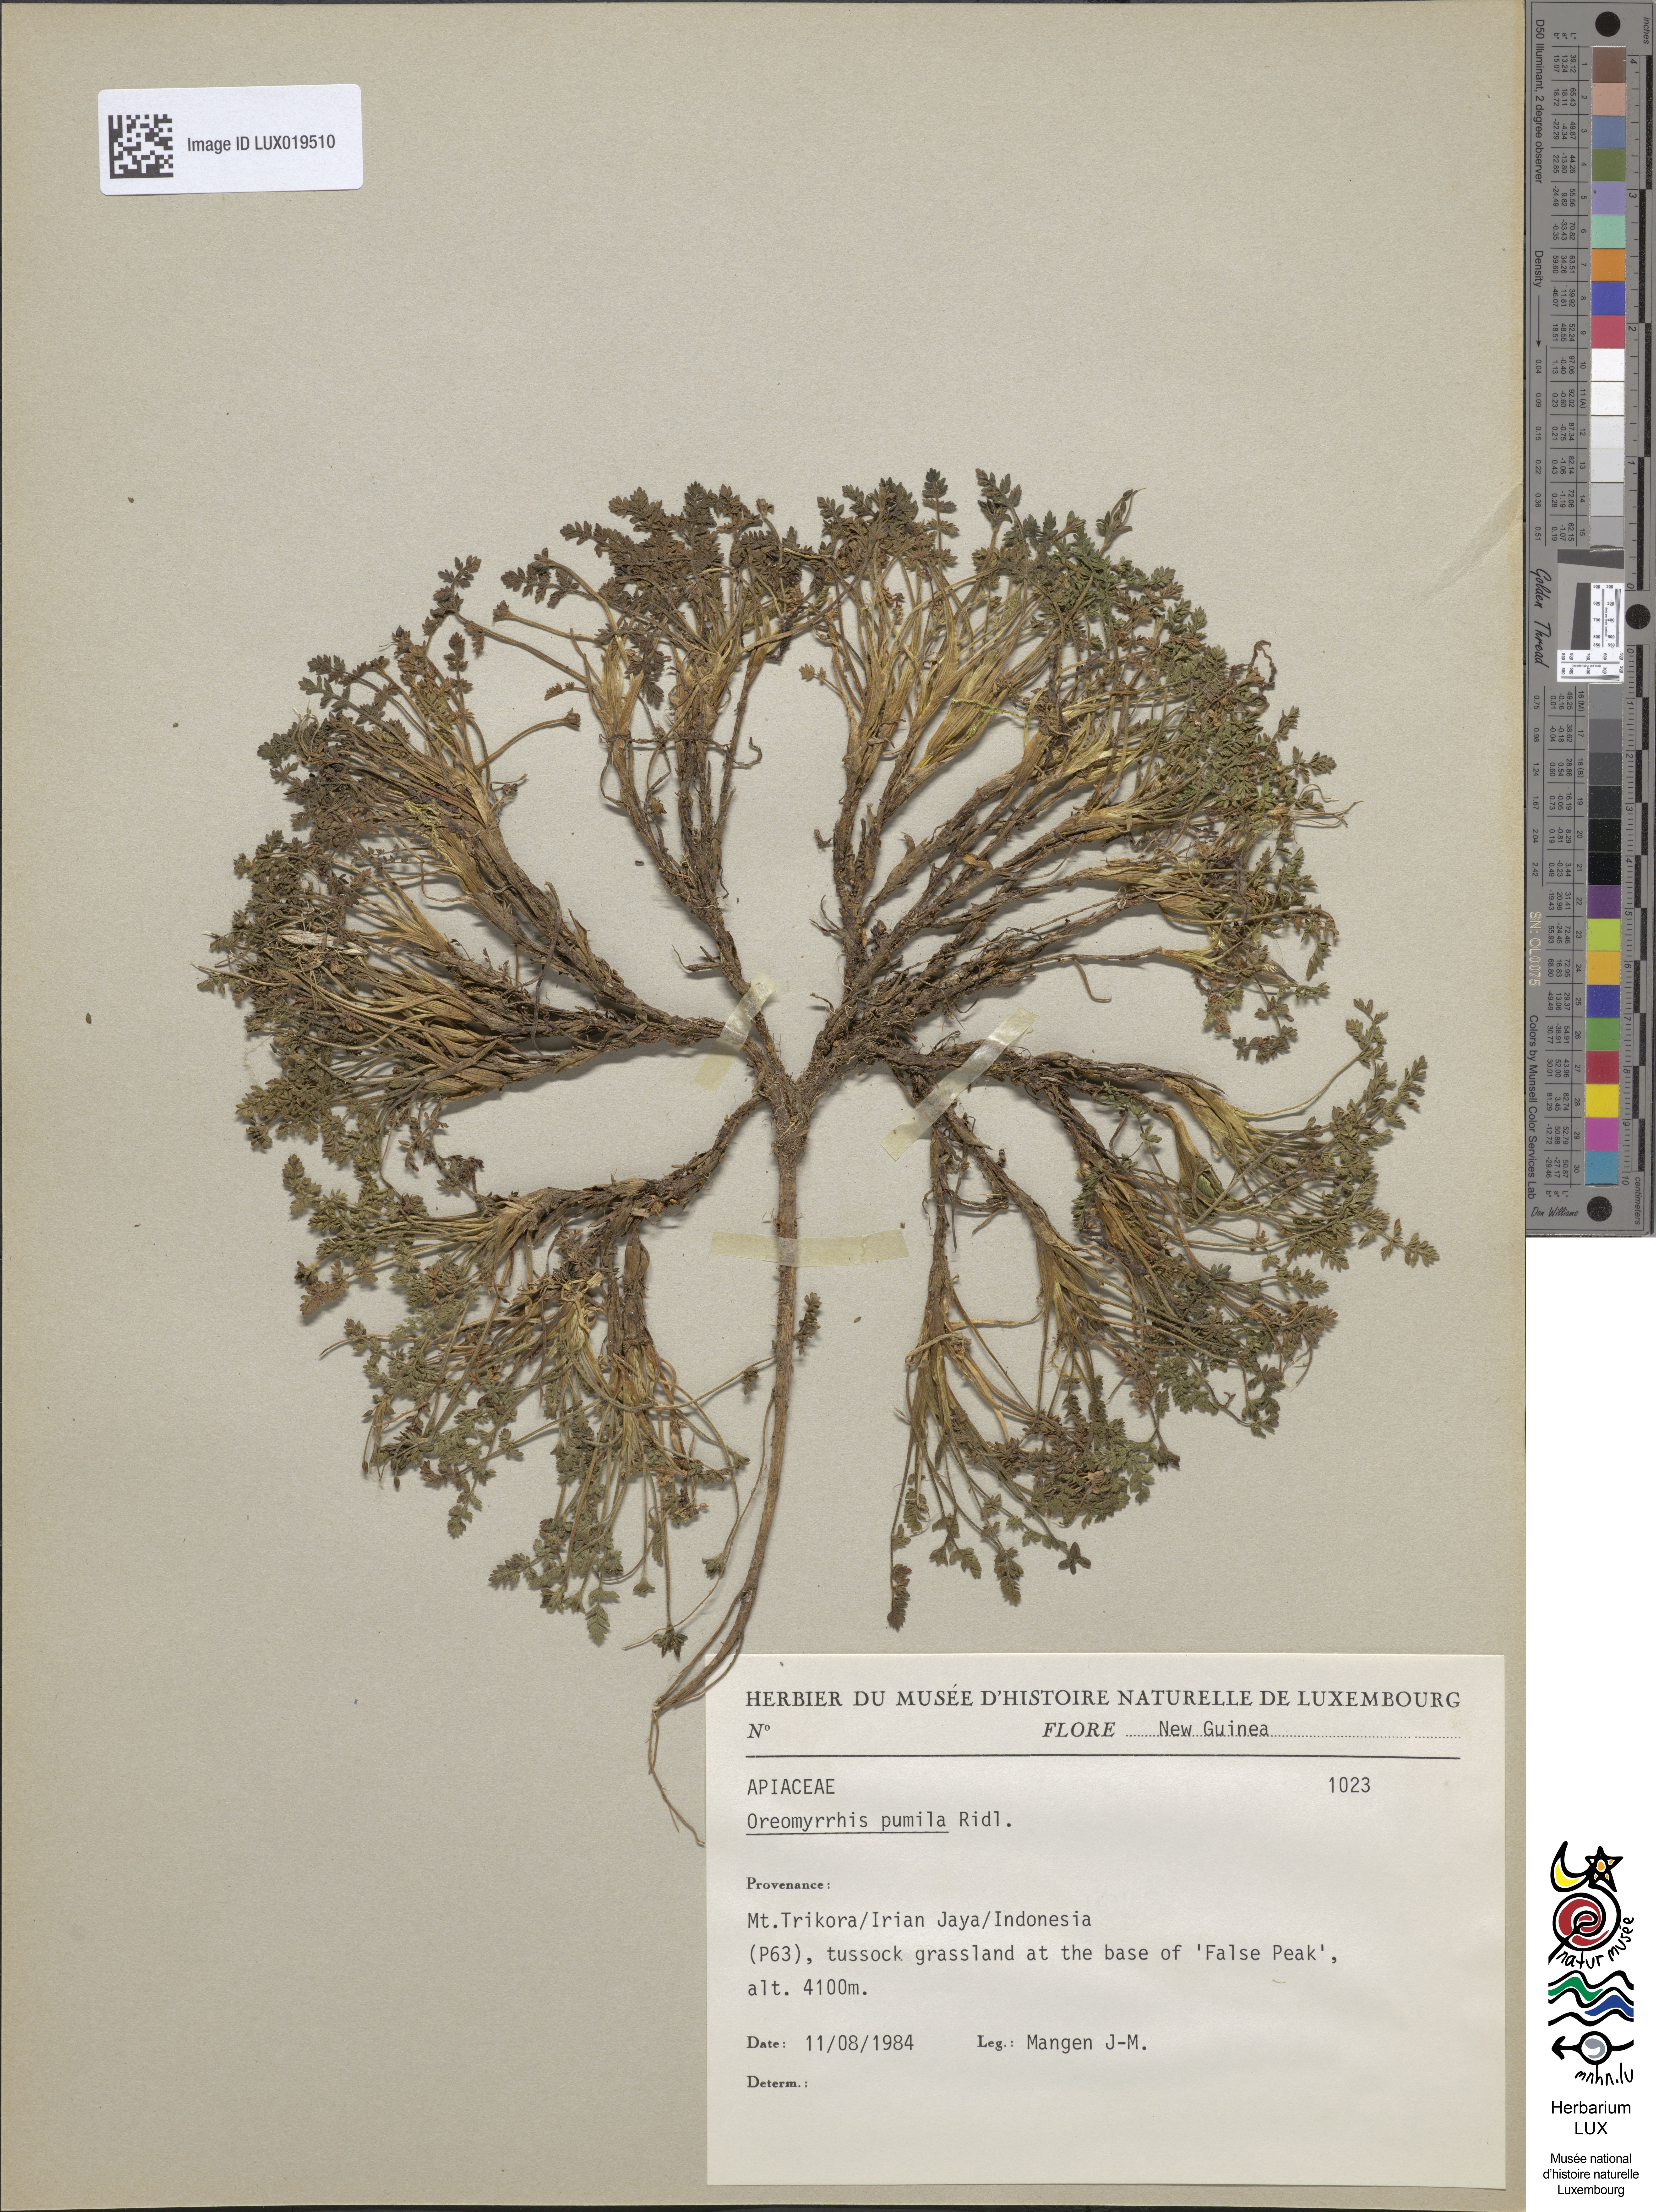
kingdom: Plantae
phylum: Tracheophyta
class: Magnoliopsida
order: Apiales
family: Apiaceae
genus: Chaerophyllum
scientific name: Chaerophyllum pumilum
